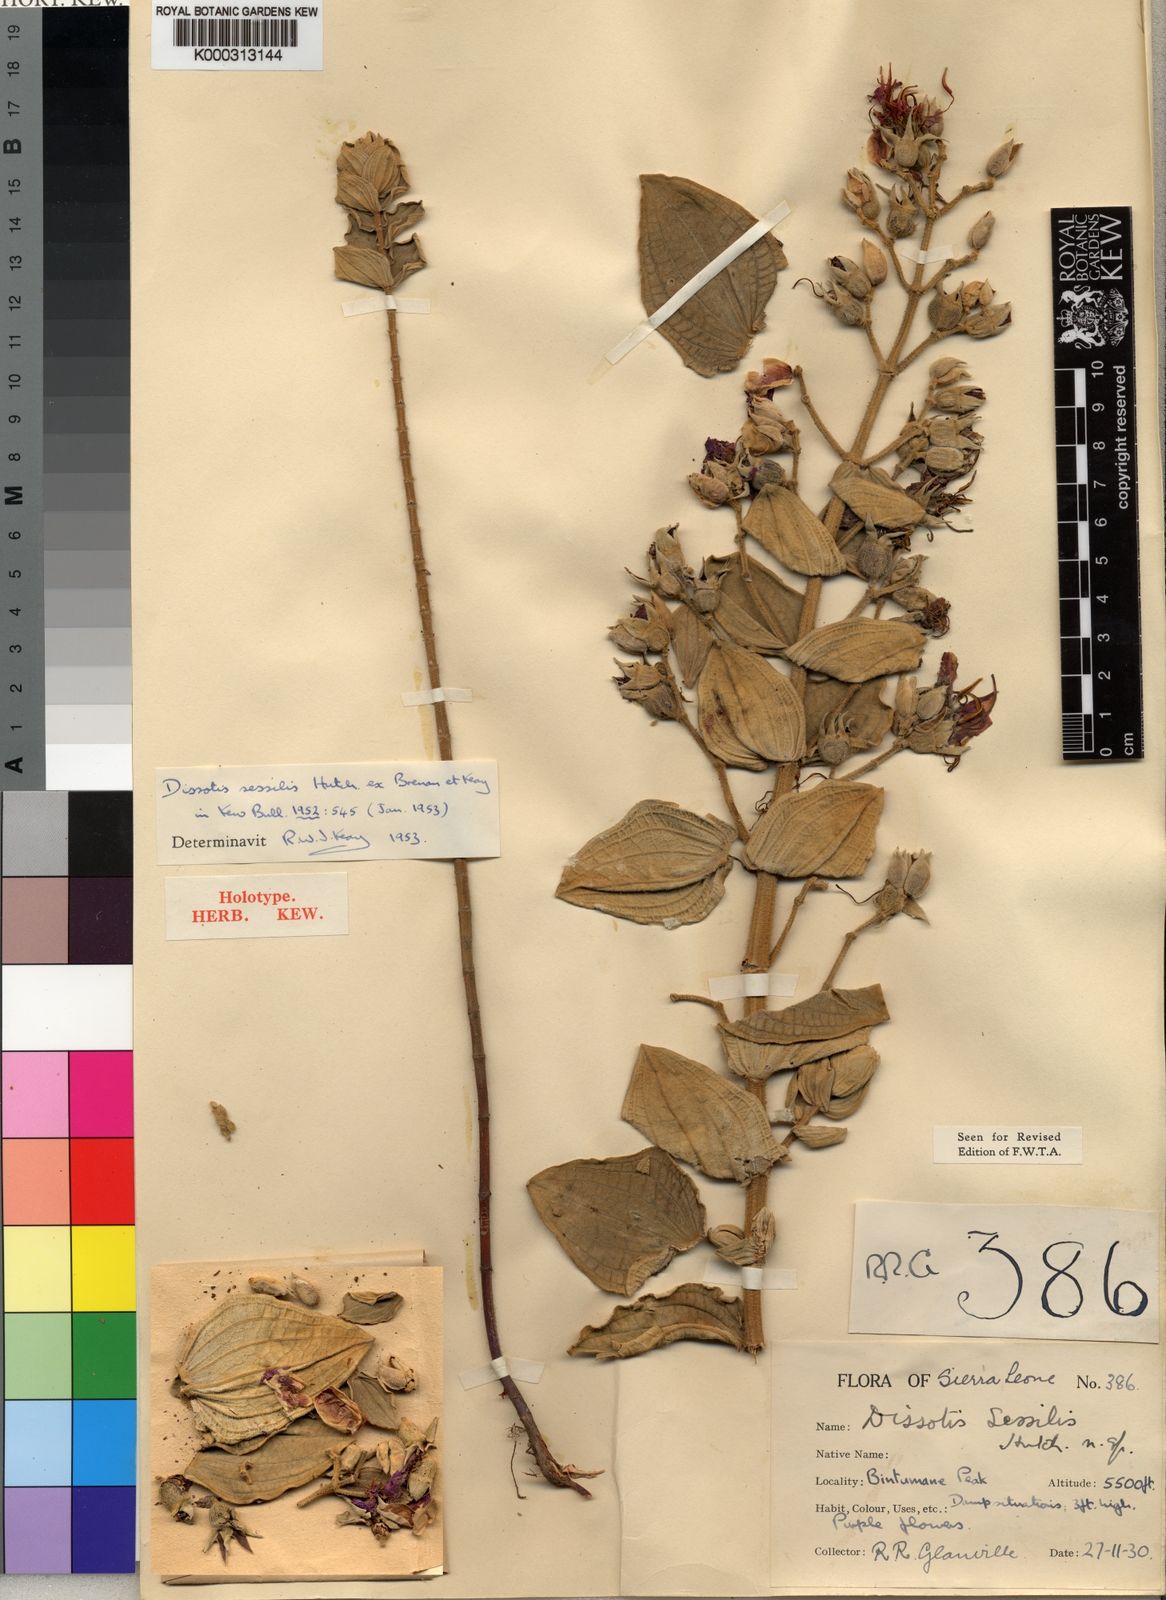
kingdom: Plantae
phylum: Tracheophyta
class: Magnoliopsida
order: Myrtales
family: Melastomataceae
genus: Argyrella
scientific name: Argyrella sessilis
